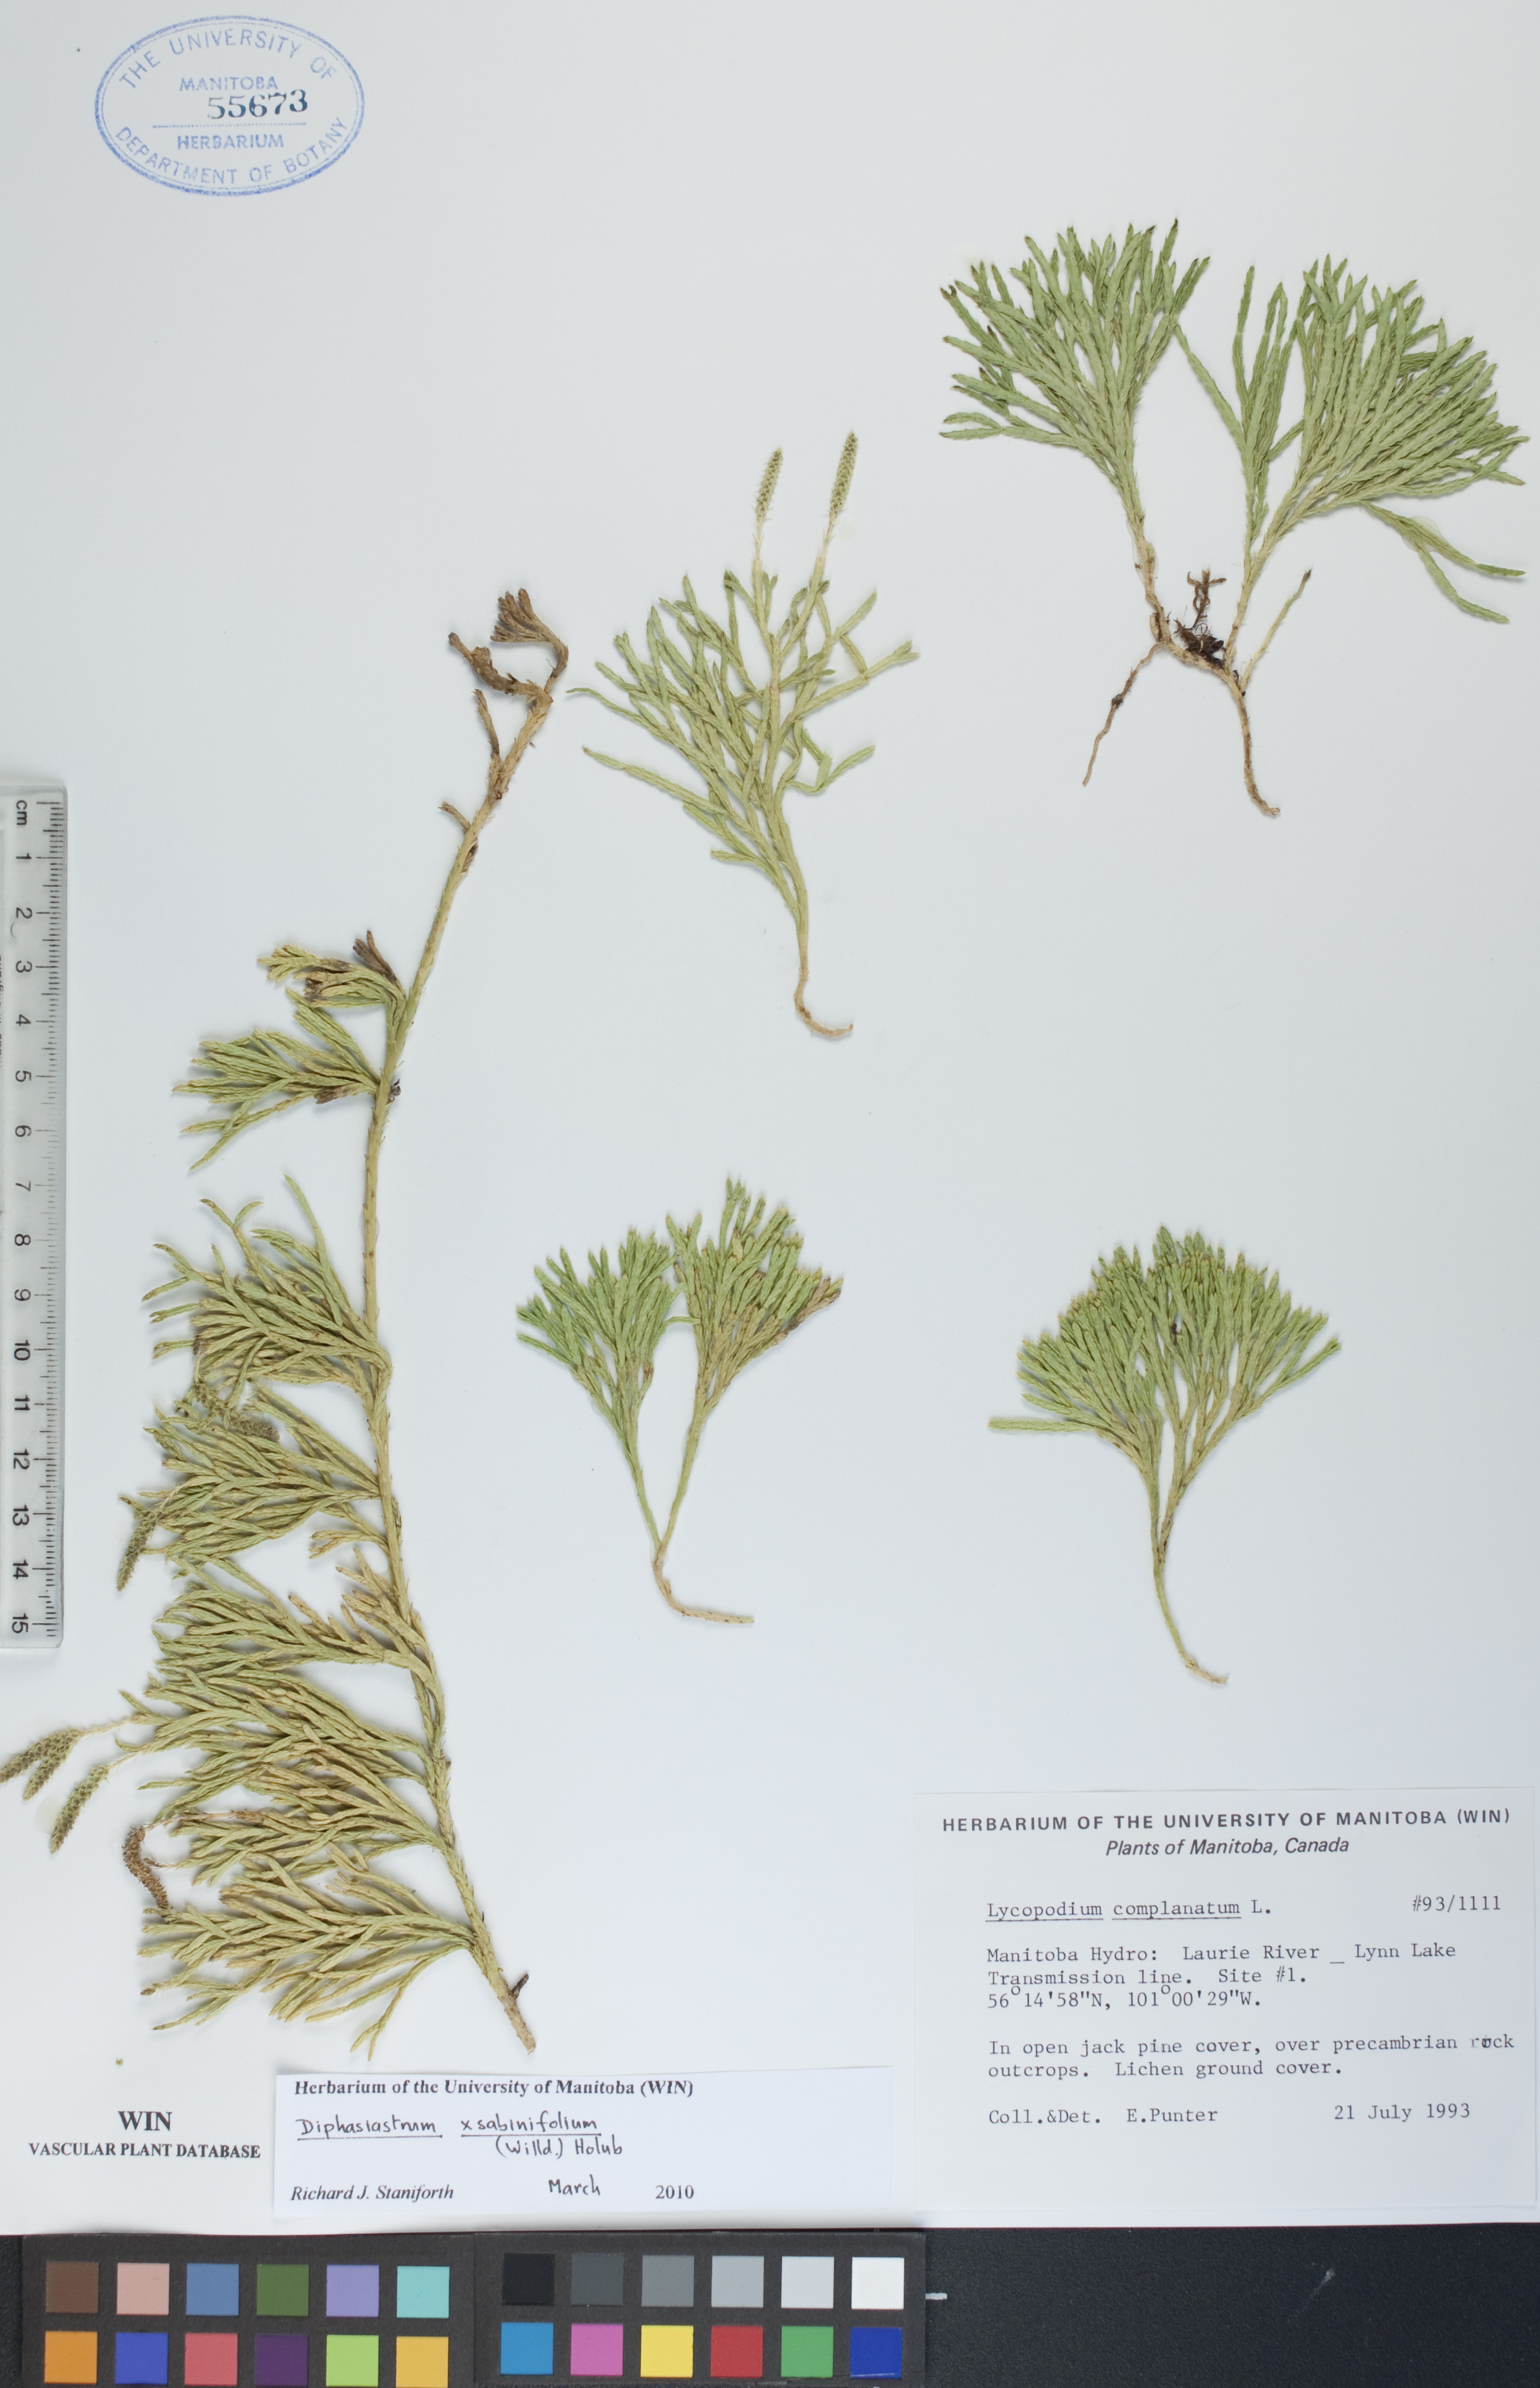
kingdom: Plantae
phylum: Tracheophyta
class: Lycopodiopsida
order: Lycopodiales
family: Lycopodiaceae
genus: Diphasiastrum
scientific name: Diphasiastrum sabinifolium
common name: Juniper clubmoss
